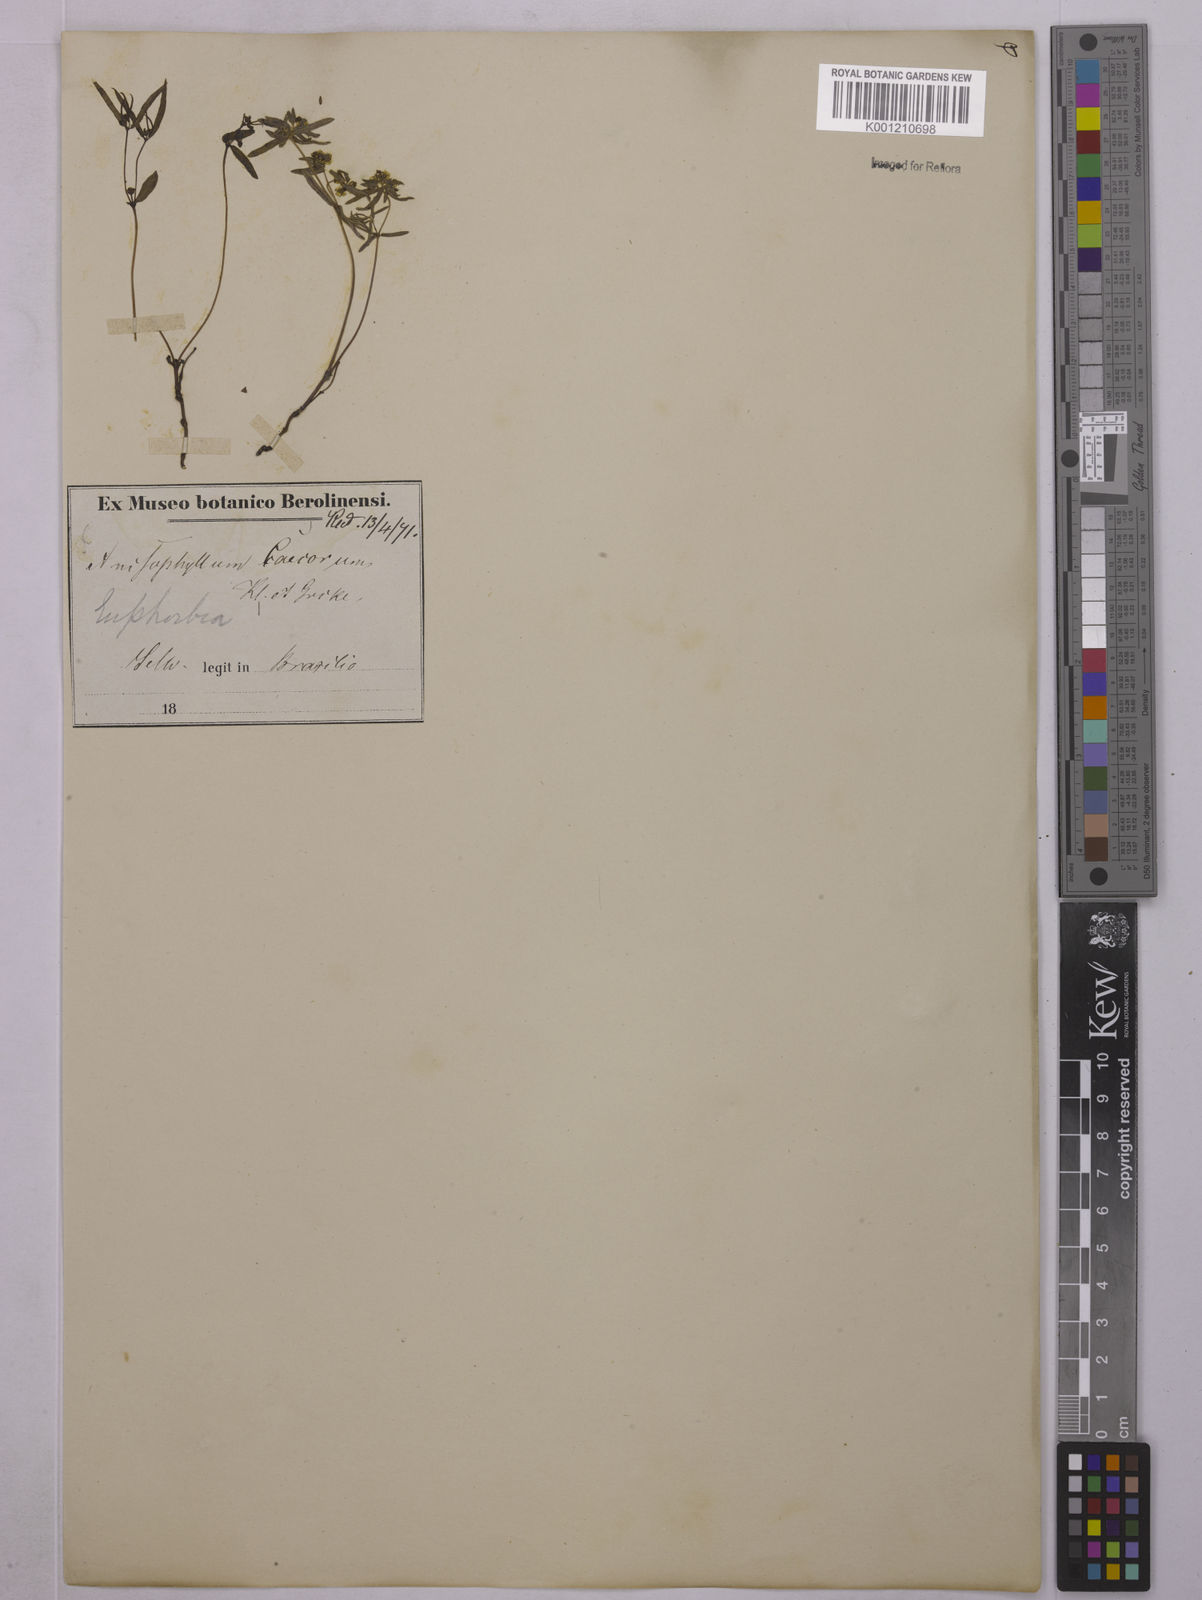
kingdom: Plantae
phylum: Tracheophyta
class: Magnoliopsida
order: Malpighiales
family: Euphorbiaceae
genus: Euphorbia
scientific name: Euphorbia potentilloides
